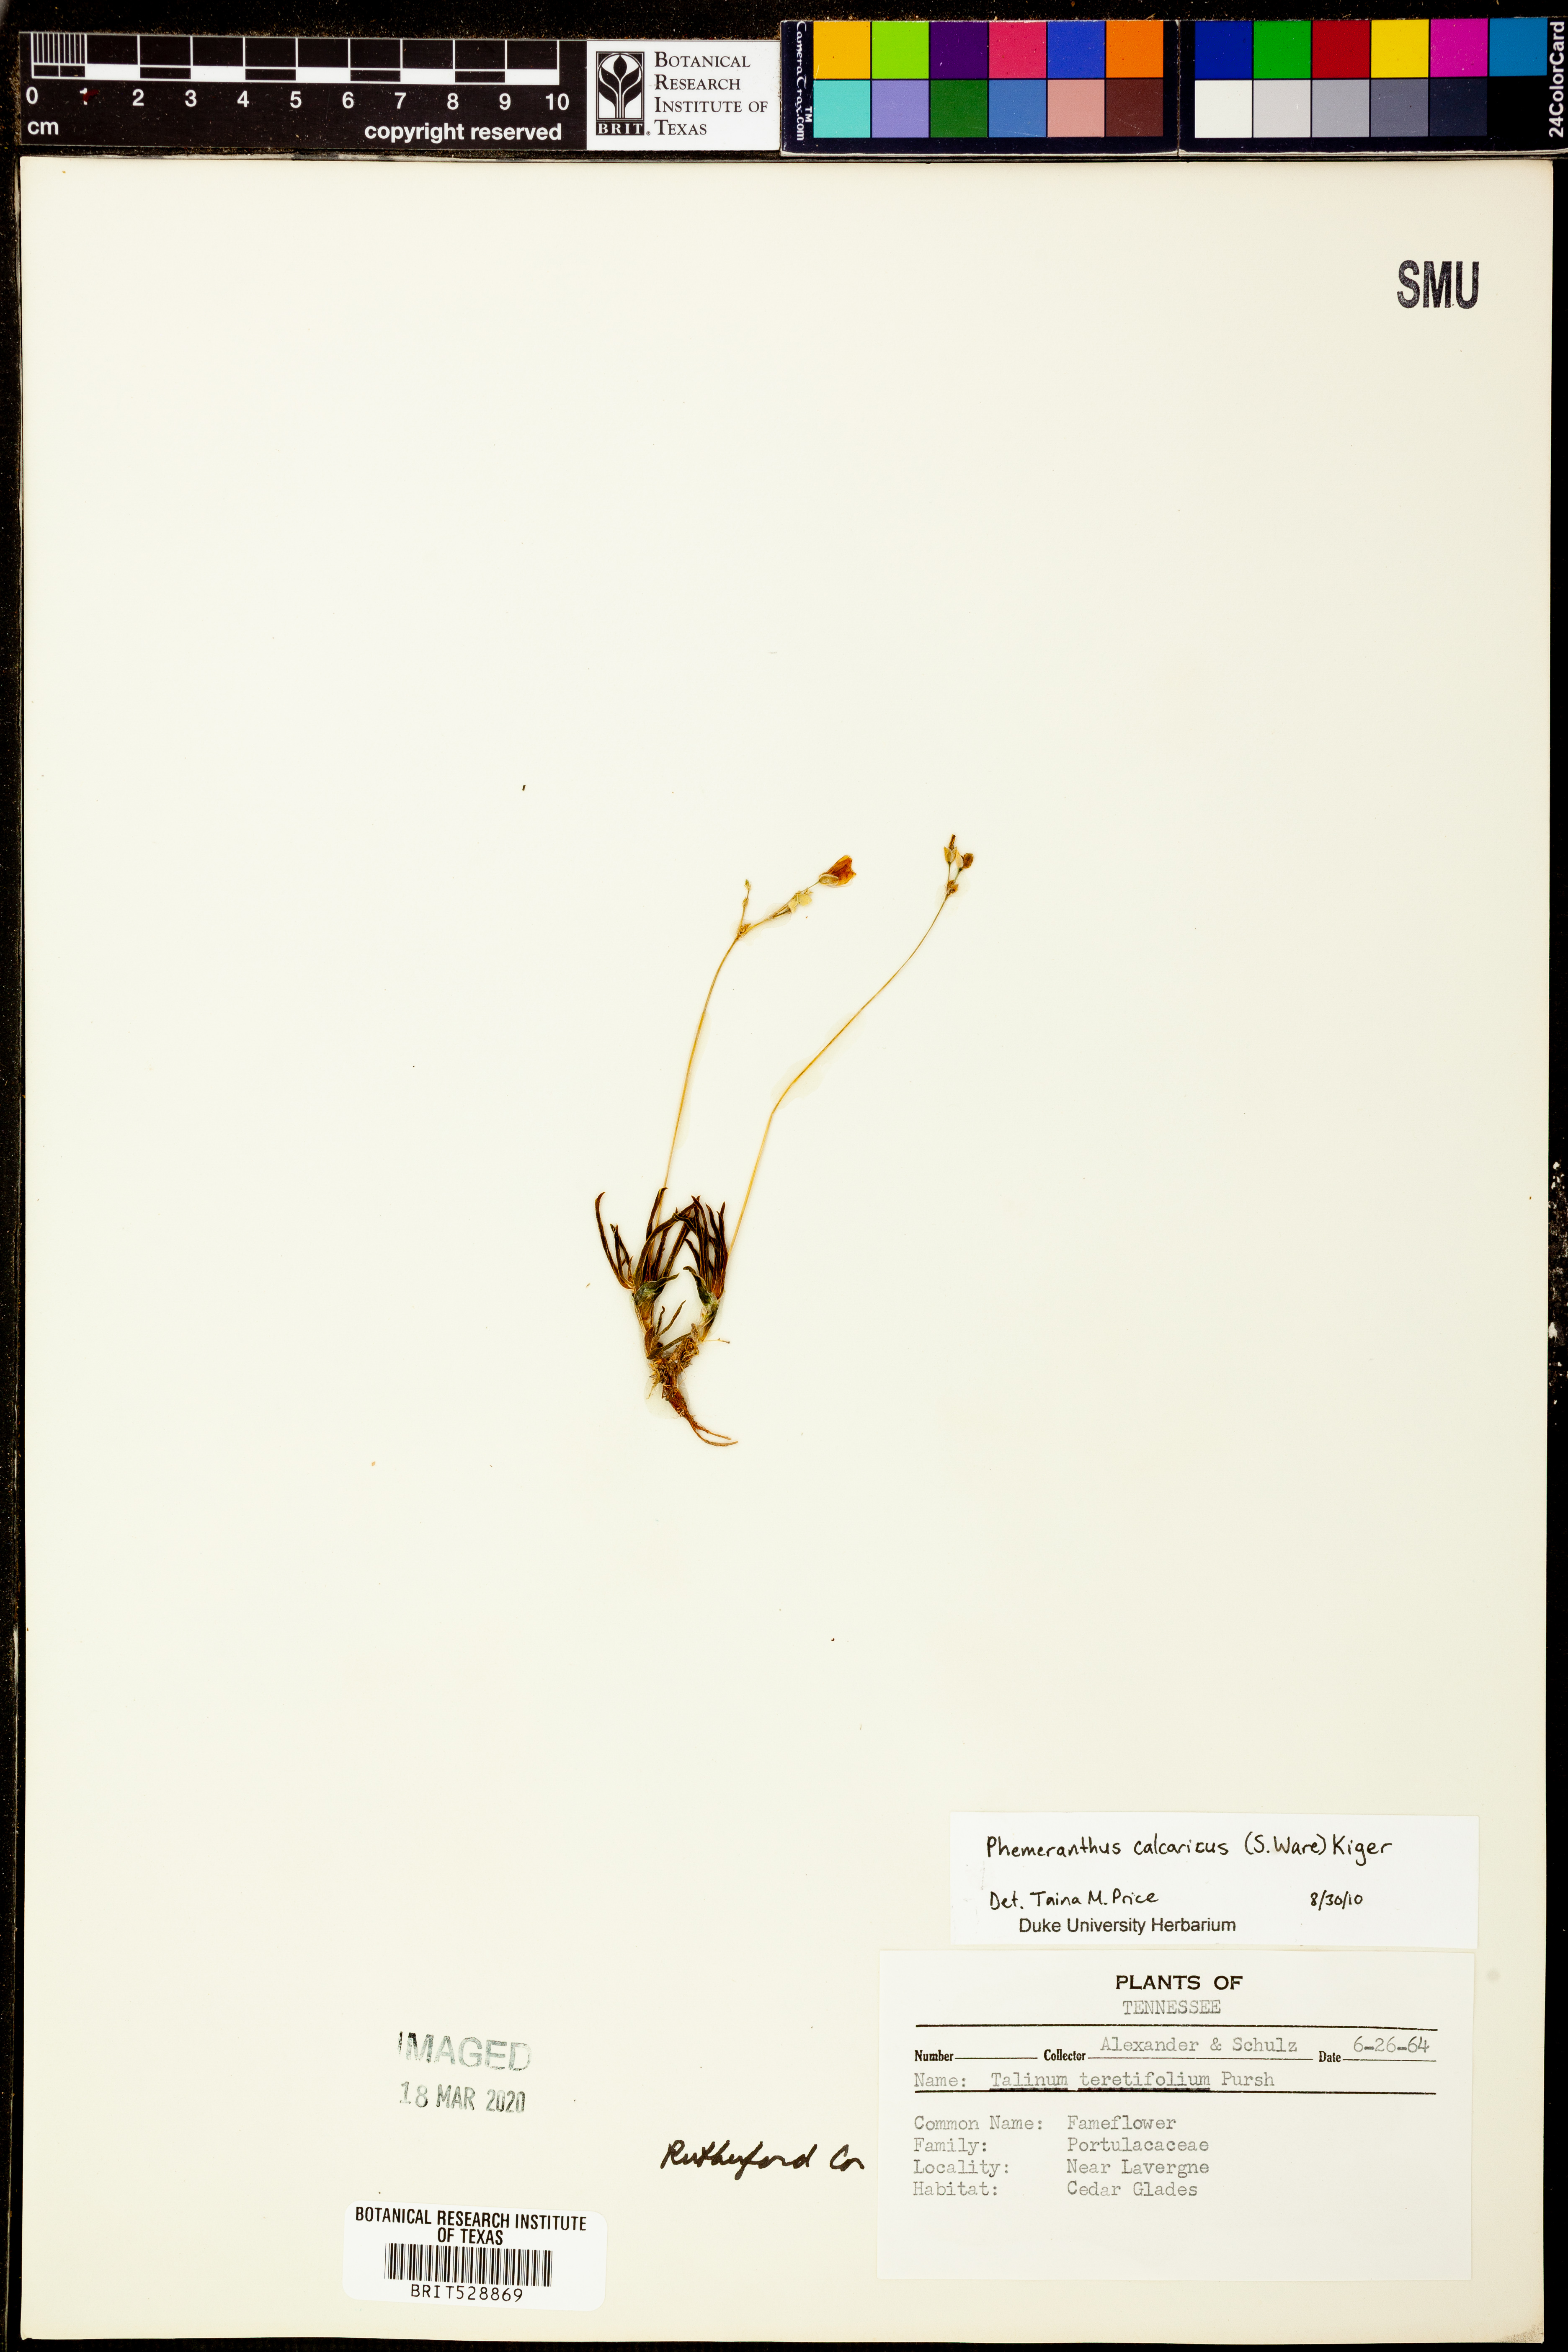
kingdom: Plantae
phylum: Tracheophyta
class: Magnoliopsida
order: Caryophyllales
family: Montiaceae
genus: Phemeranthus
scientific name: Phemeranthus calcaricus
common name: Limestone fameflower
